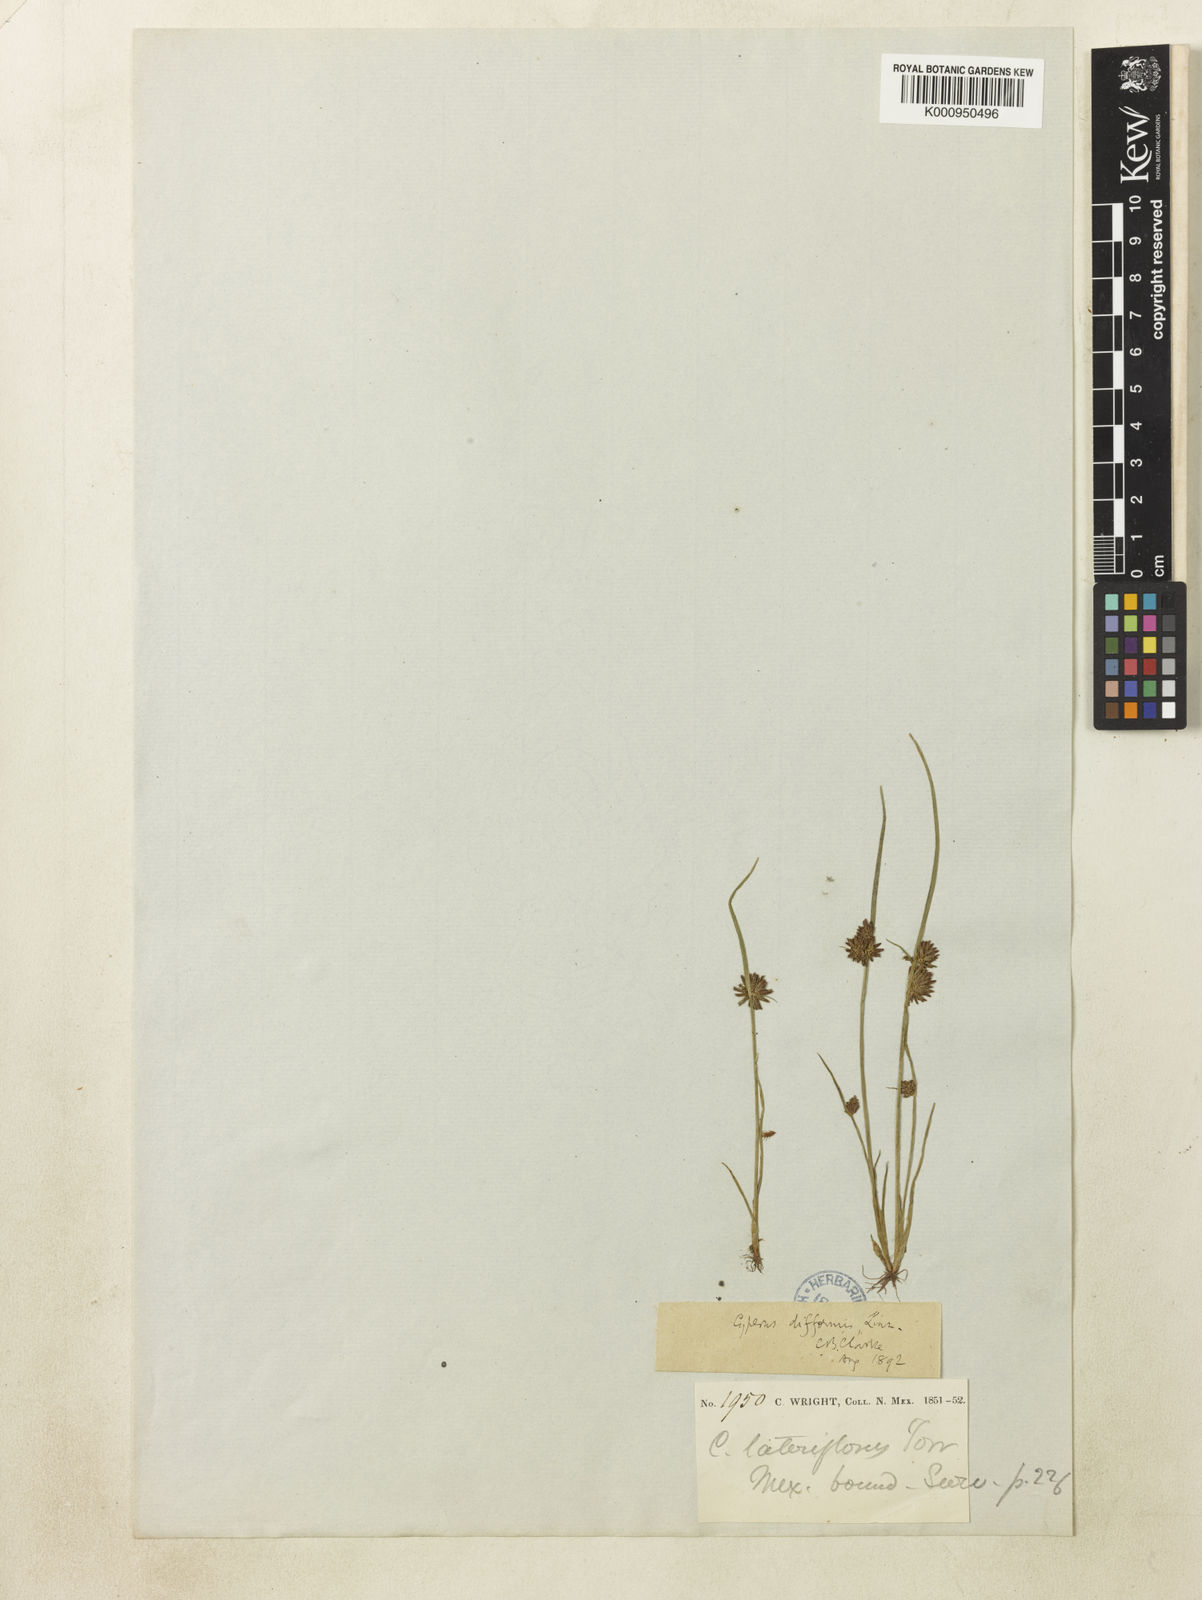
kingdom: Plantae
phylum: Tracheophyta
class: Liliopsida
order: Poales
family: Cyperaceae
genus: Cyperus
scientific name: Cyperus difformis
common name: Variable flatsedge
